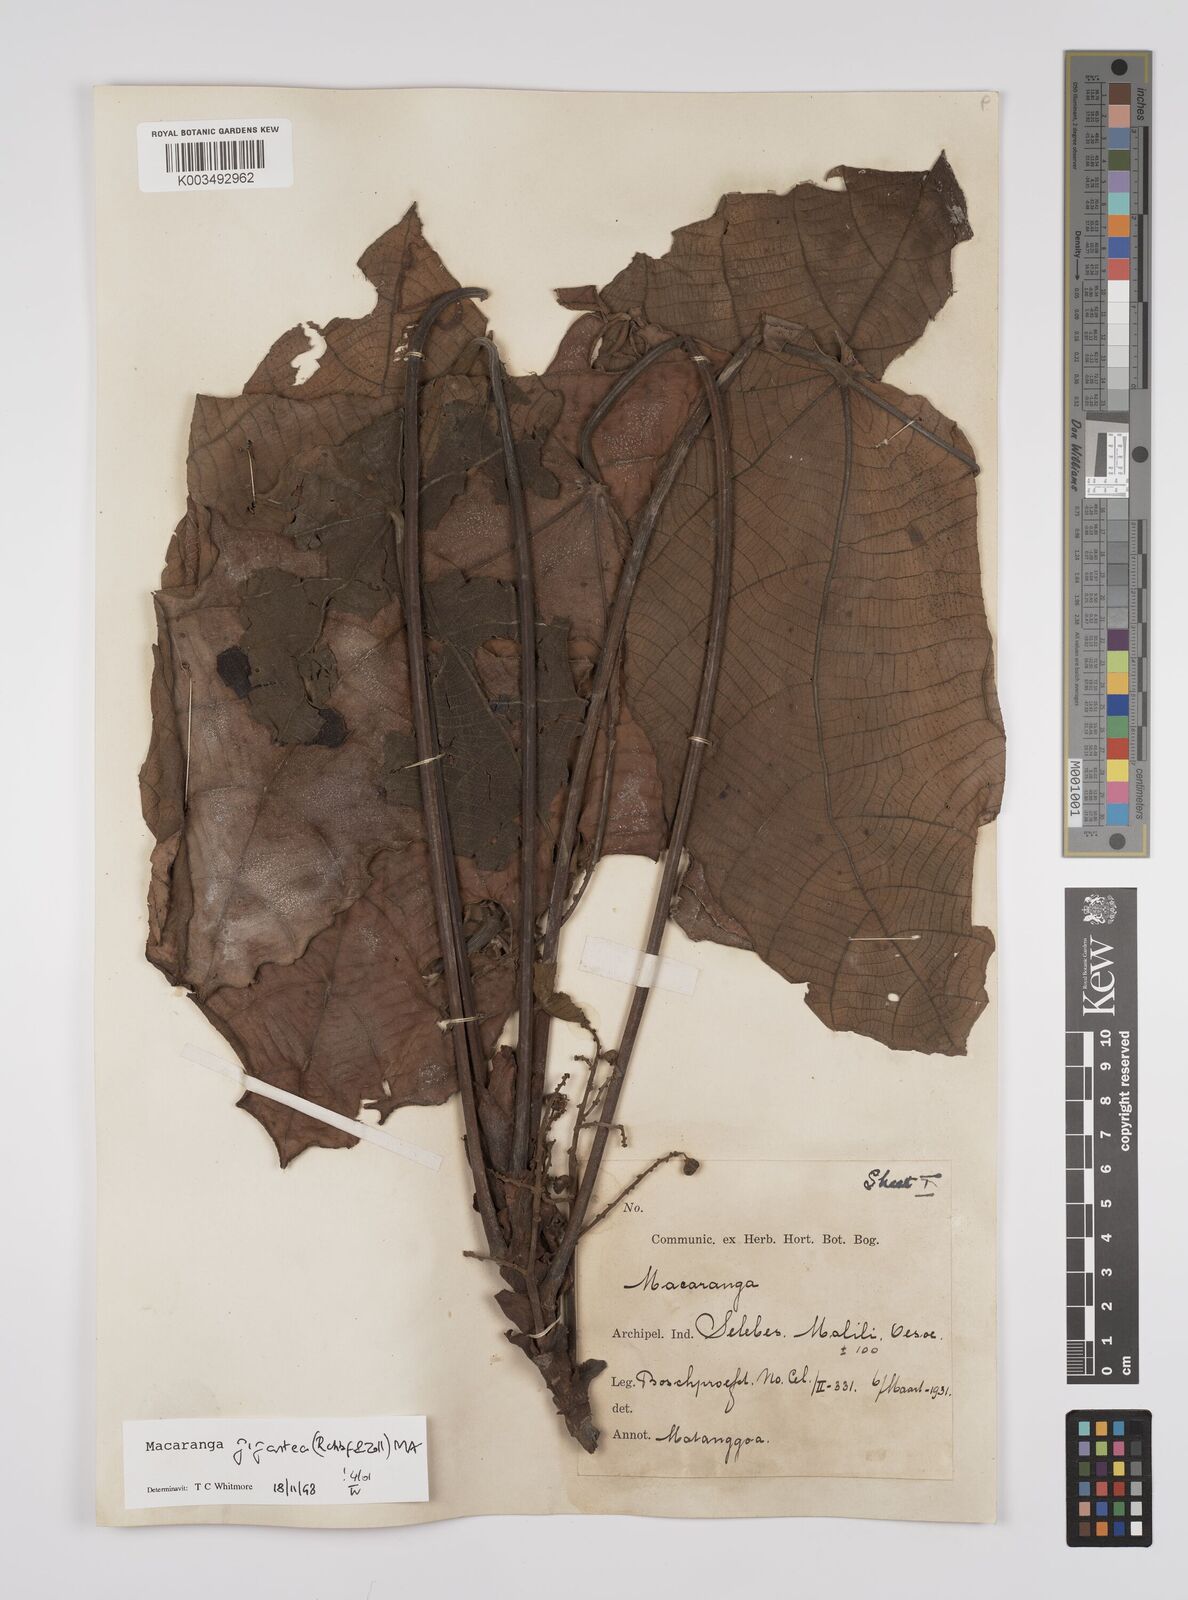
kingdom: Plantae
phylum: Tracheophyta
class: Magnoliopsida
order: Malpighiales
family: Euphorbiaceae
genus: Macaranga
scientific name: Macaranga gigantea
